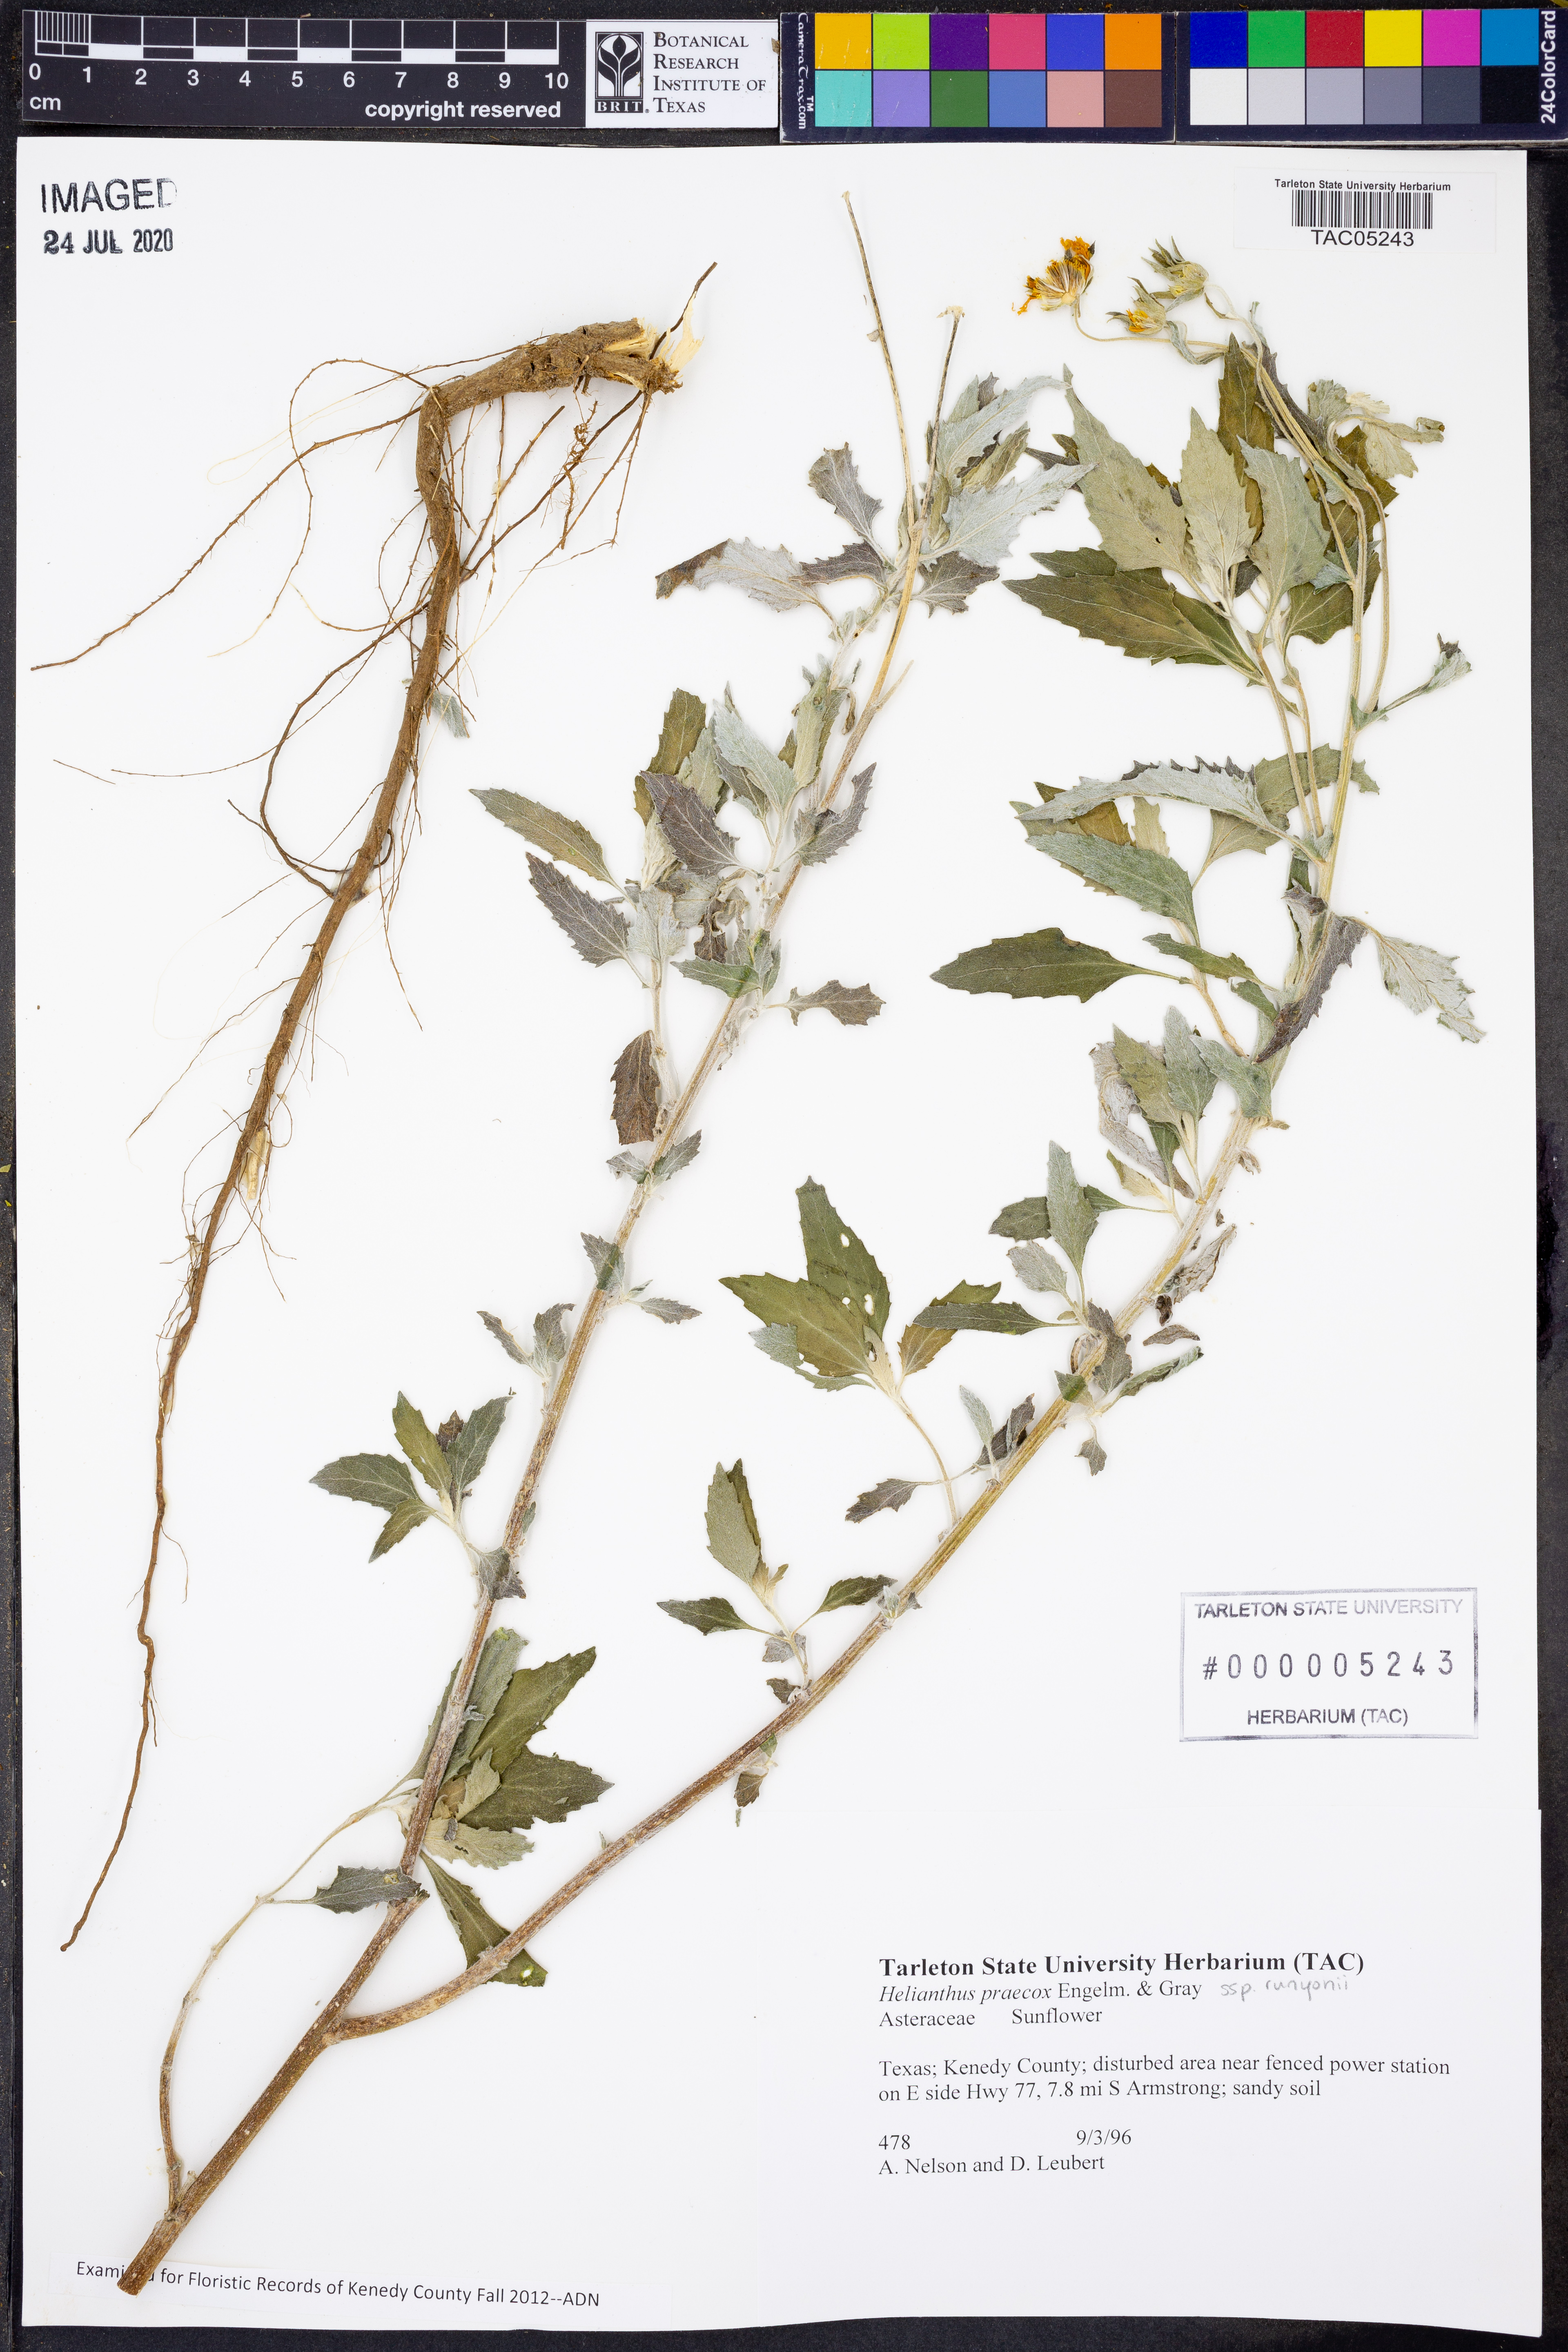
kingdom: Plantae
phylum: Tracheophyta
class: Magnoliopsida
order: Asterales
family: Asteraceae
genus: Helianthus
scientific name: Helianthus praecox
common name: Texas sunflower
